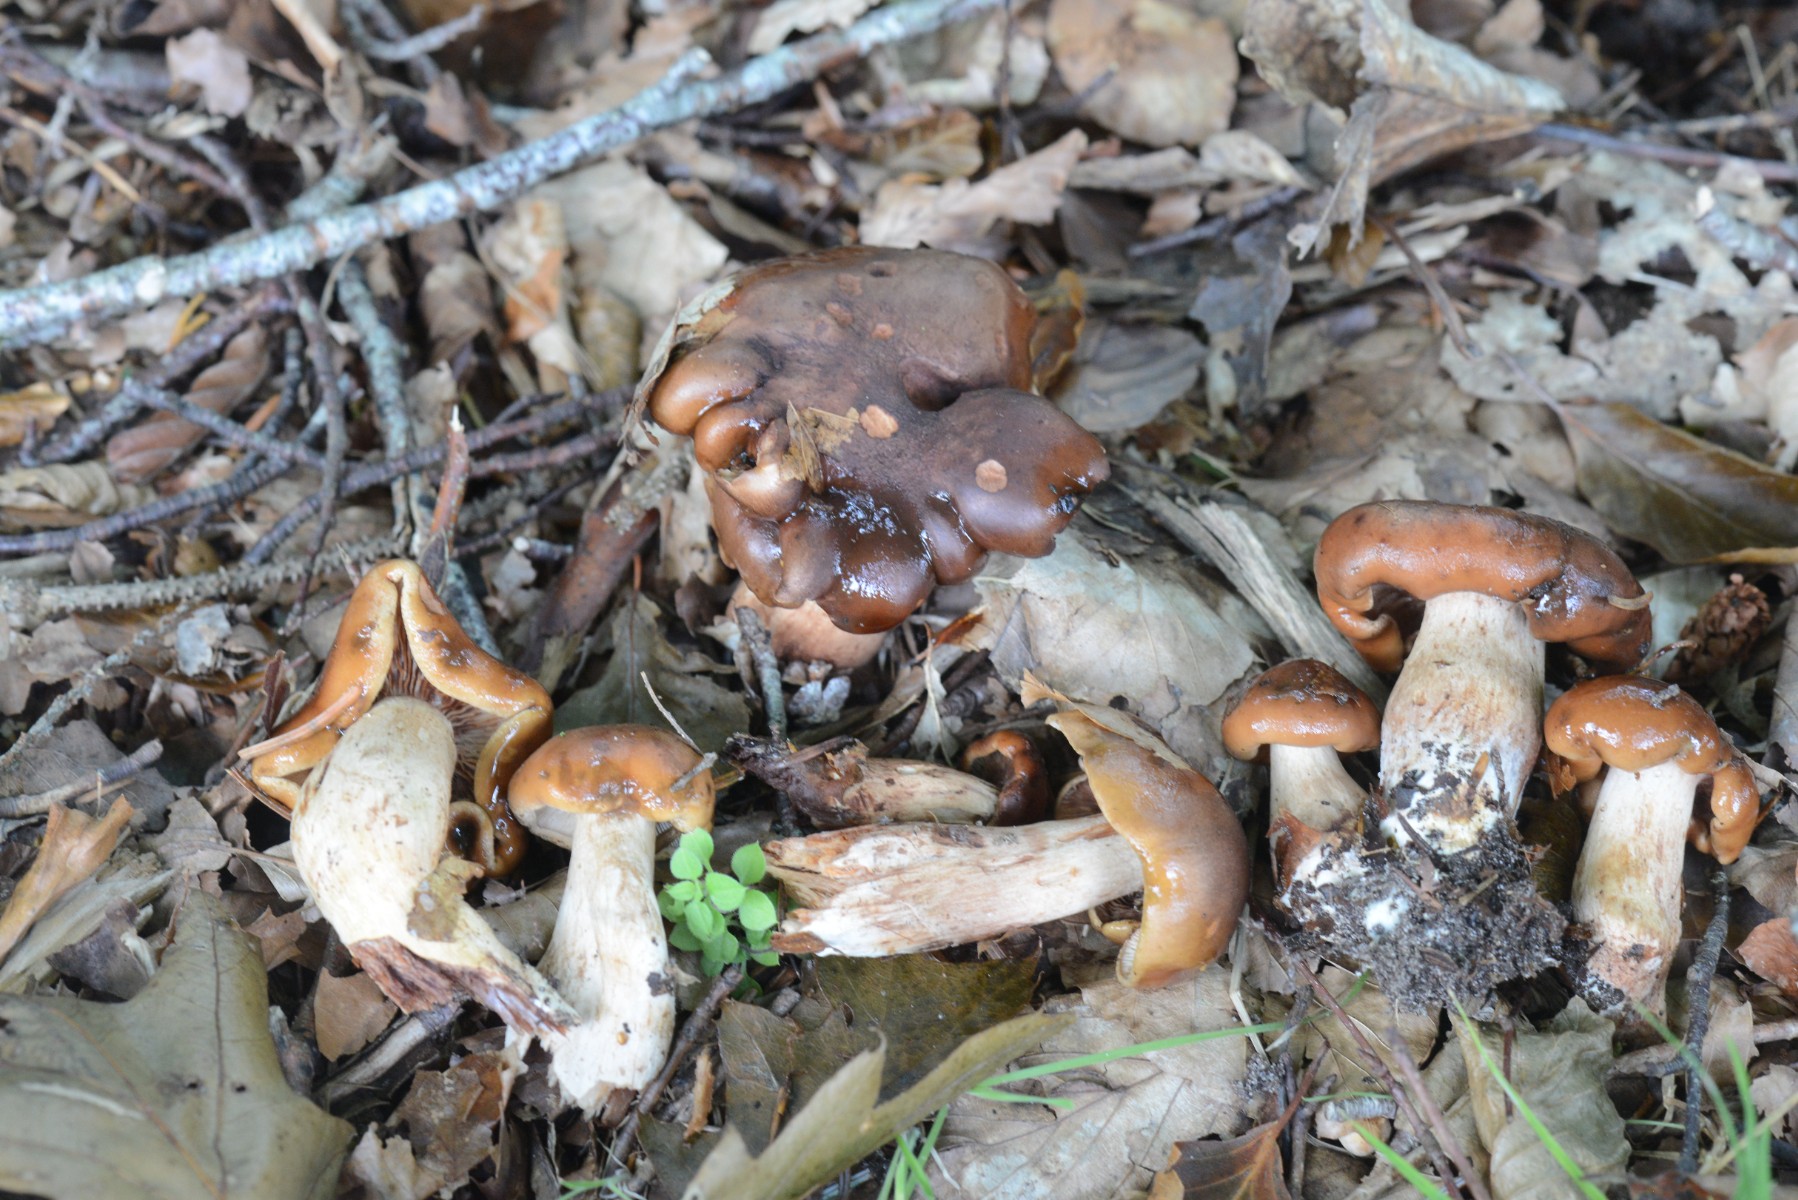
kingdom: Fungi
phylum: Basidiomycota
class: Agaricomycetes
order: Agaricales
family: Tricholomataceae
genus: Tricholoma
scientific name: Tricholoma ustale
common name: sveden ridderhat
